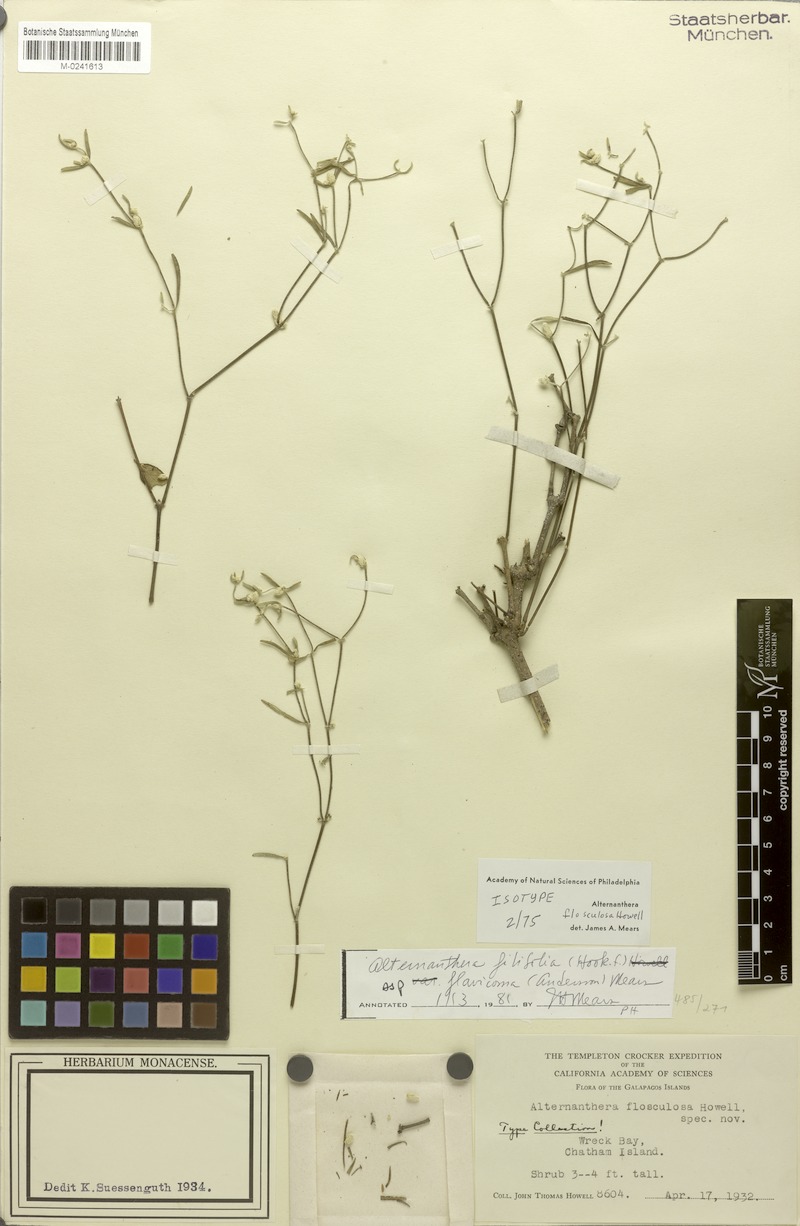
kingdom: Plantae
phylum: Tracheophyta
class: Magnoliopsida
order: Caryophyllales
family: Amaranthaceae
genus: Alternanthera
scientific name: Alternanthera flosculosa
